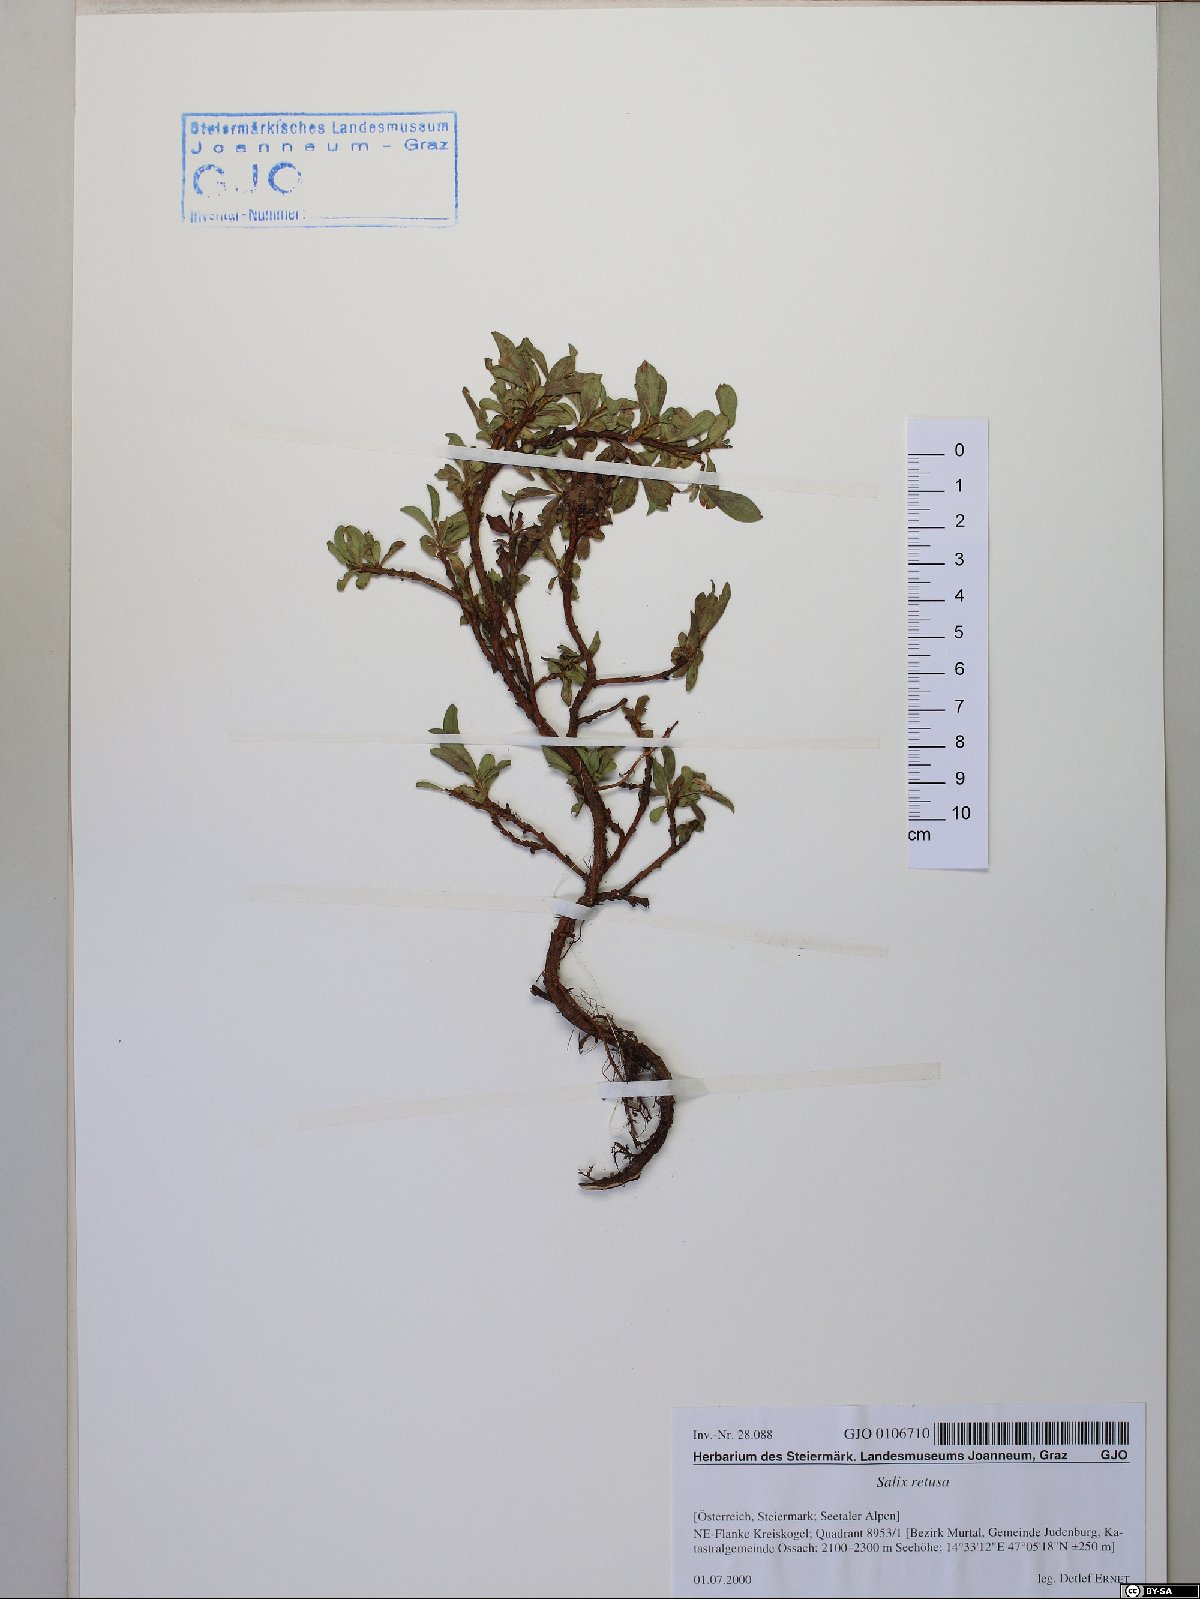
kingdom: Plantae
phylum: Tracheophyta
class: Magnoliopsida
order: Malpighiales
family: Salicaceae
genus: Salix
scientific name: Salix retusa
